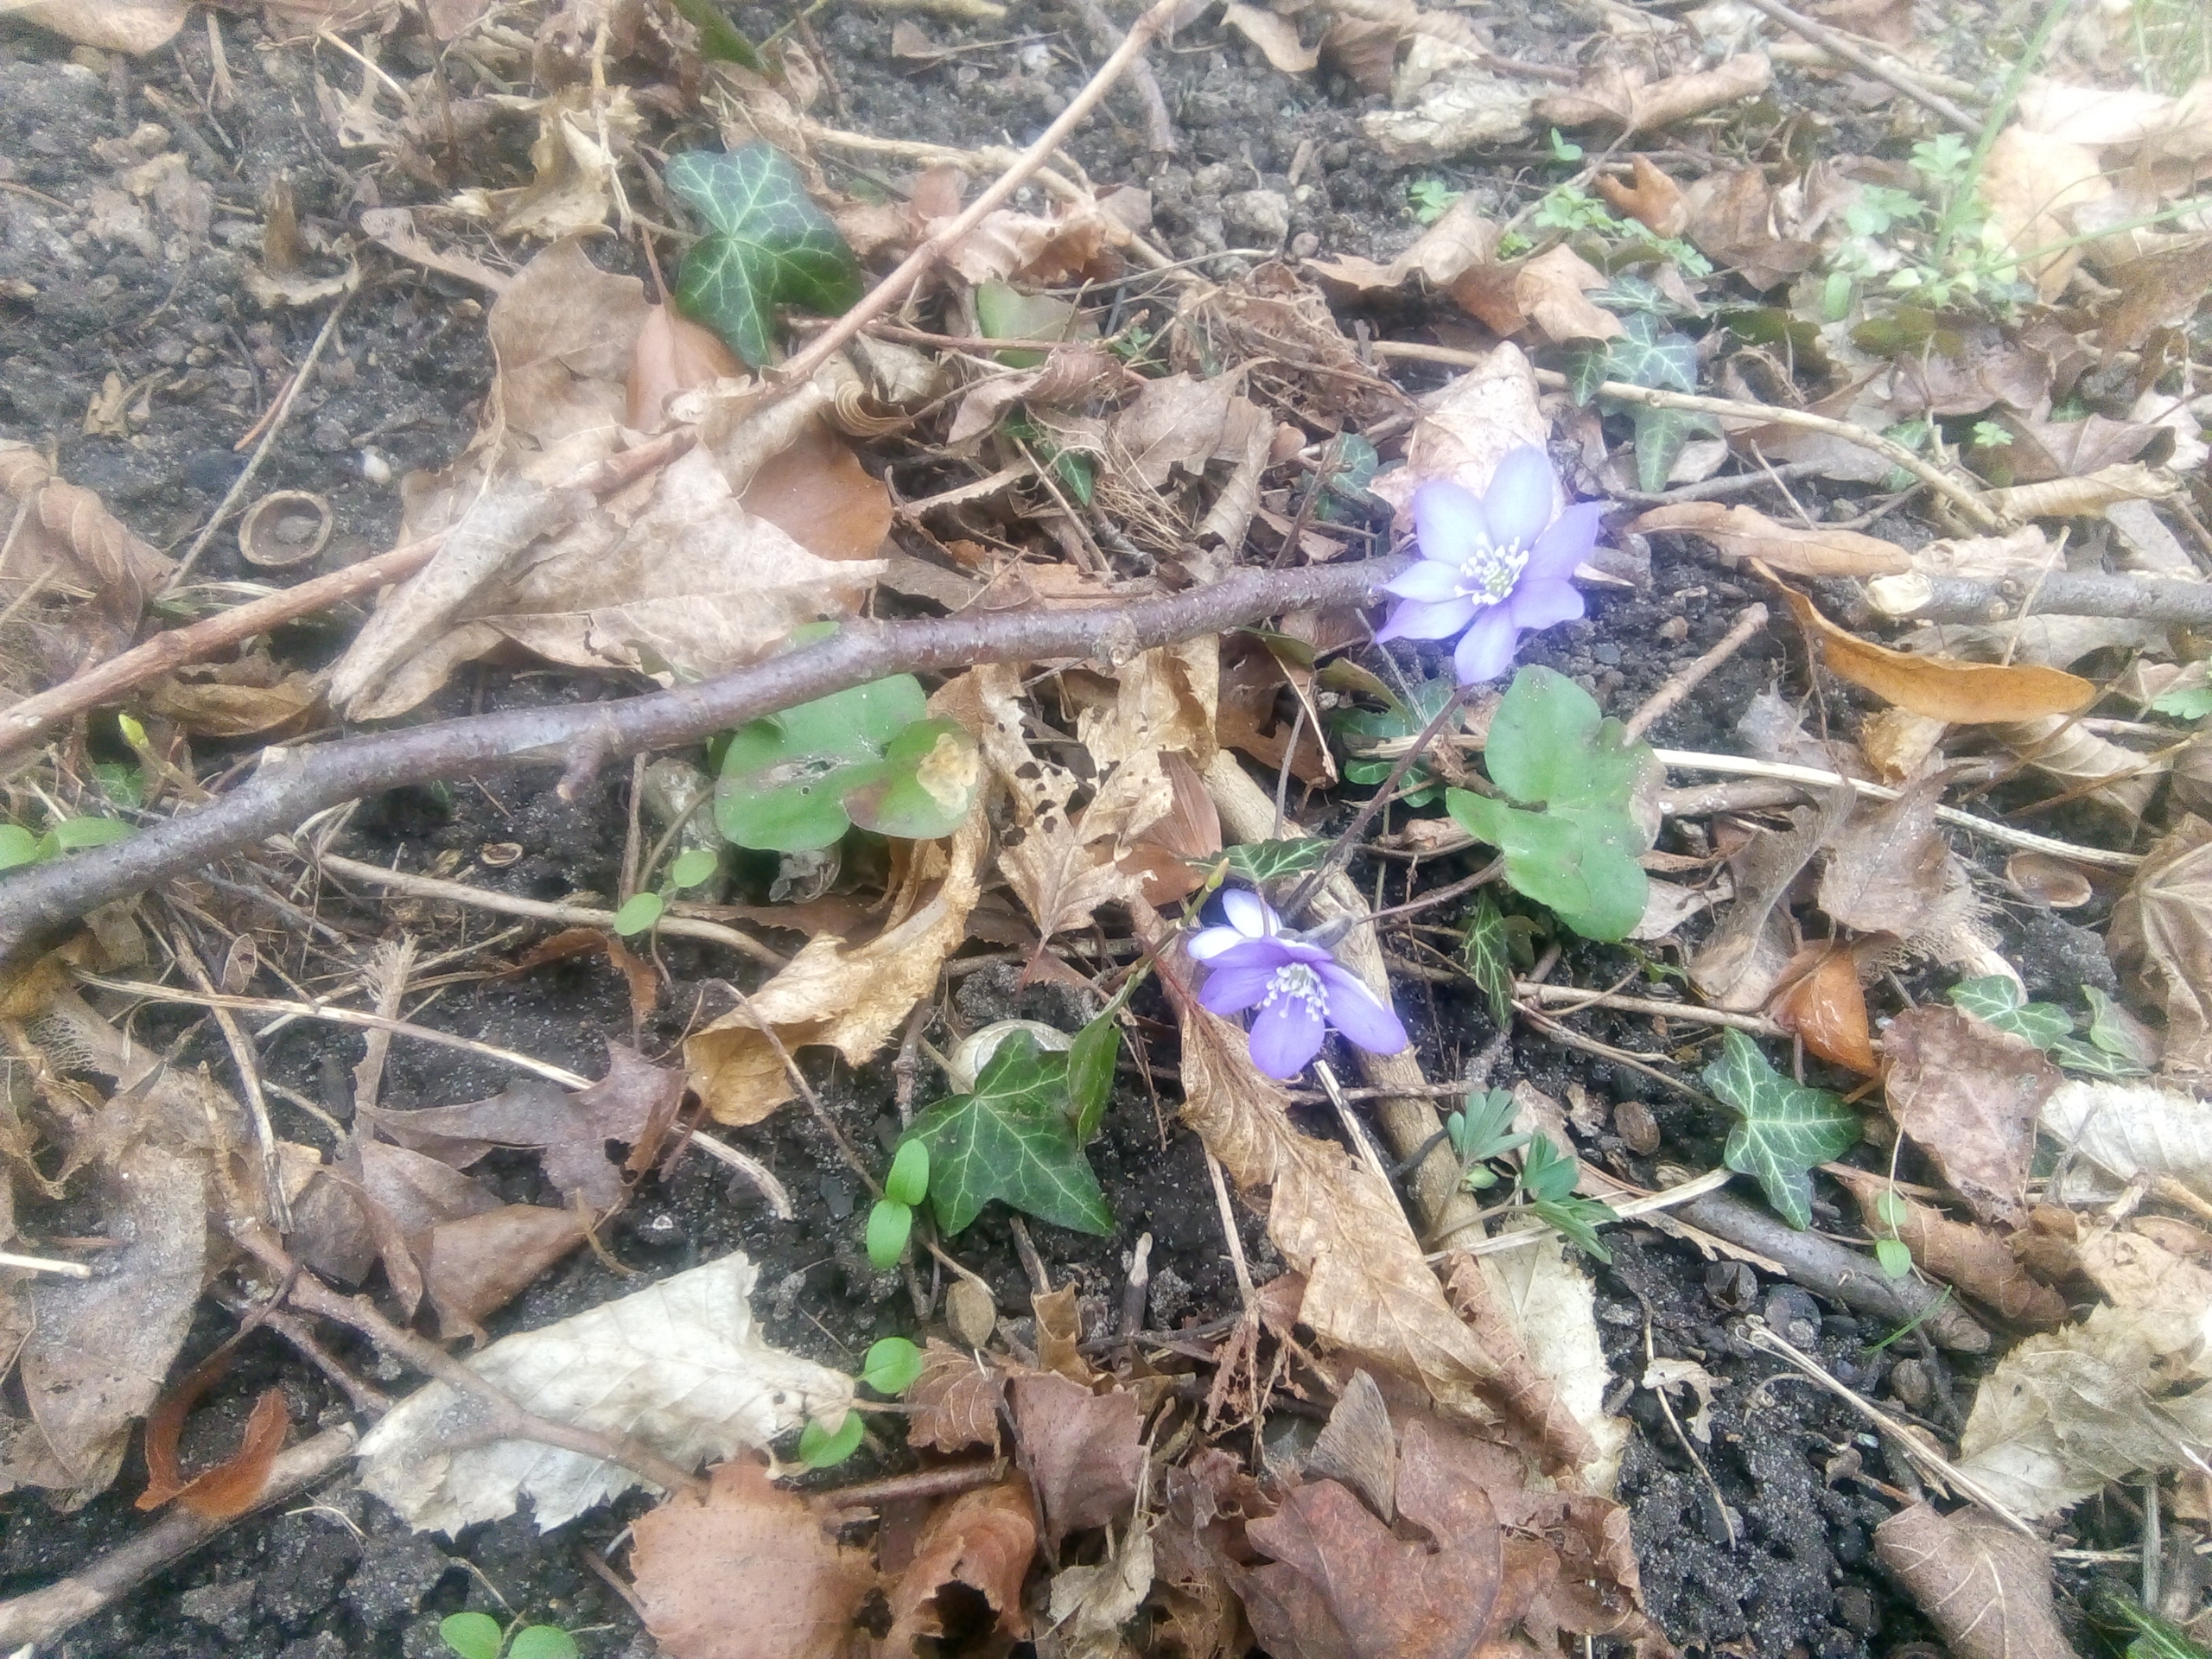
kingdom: Plantae
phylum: Tracheophyta
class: Magnoliopsida
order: Ranunculales
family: Ranunculaceae
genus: Hepatica
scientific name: Hepatica nobilis
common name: Blå anemone
